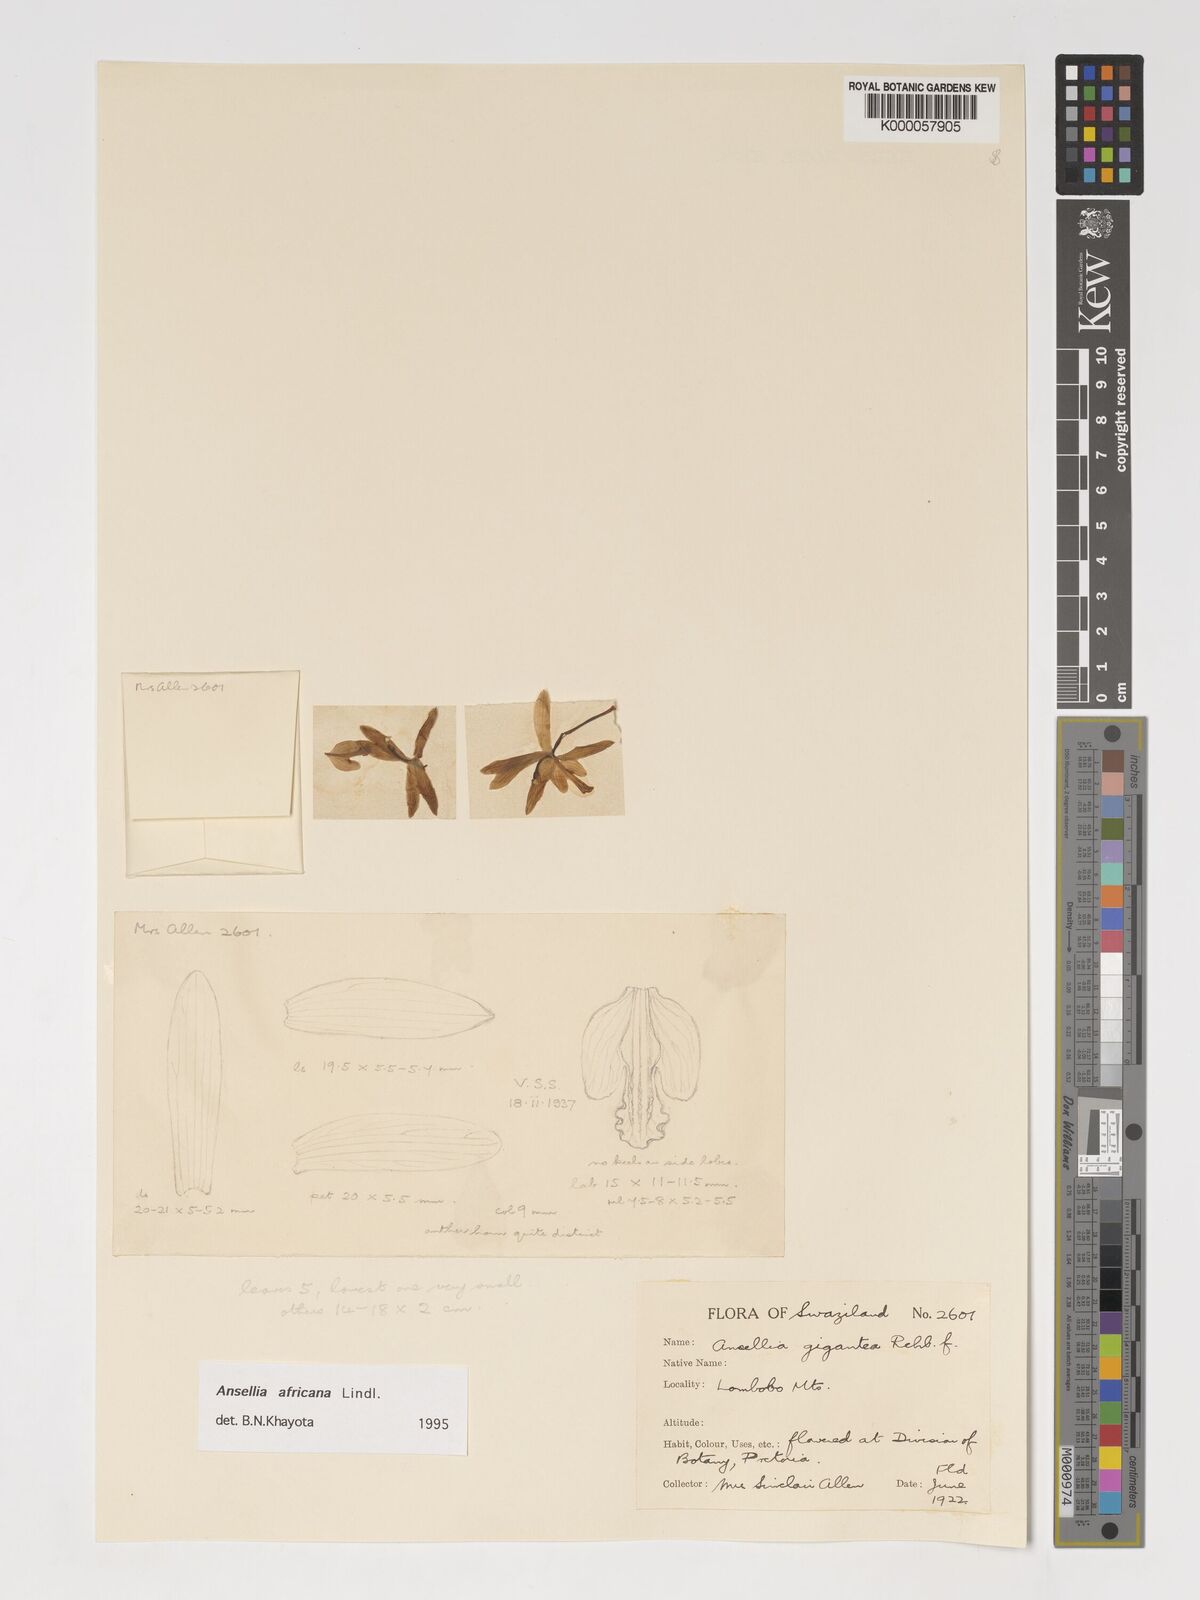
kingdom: Plantae
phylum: Tracheophyta
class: Liliopsida
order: Asparagales
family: Orchidaceae
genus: Ansellia
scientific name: Ansellia africana
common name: African ansellia
